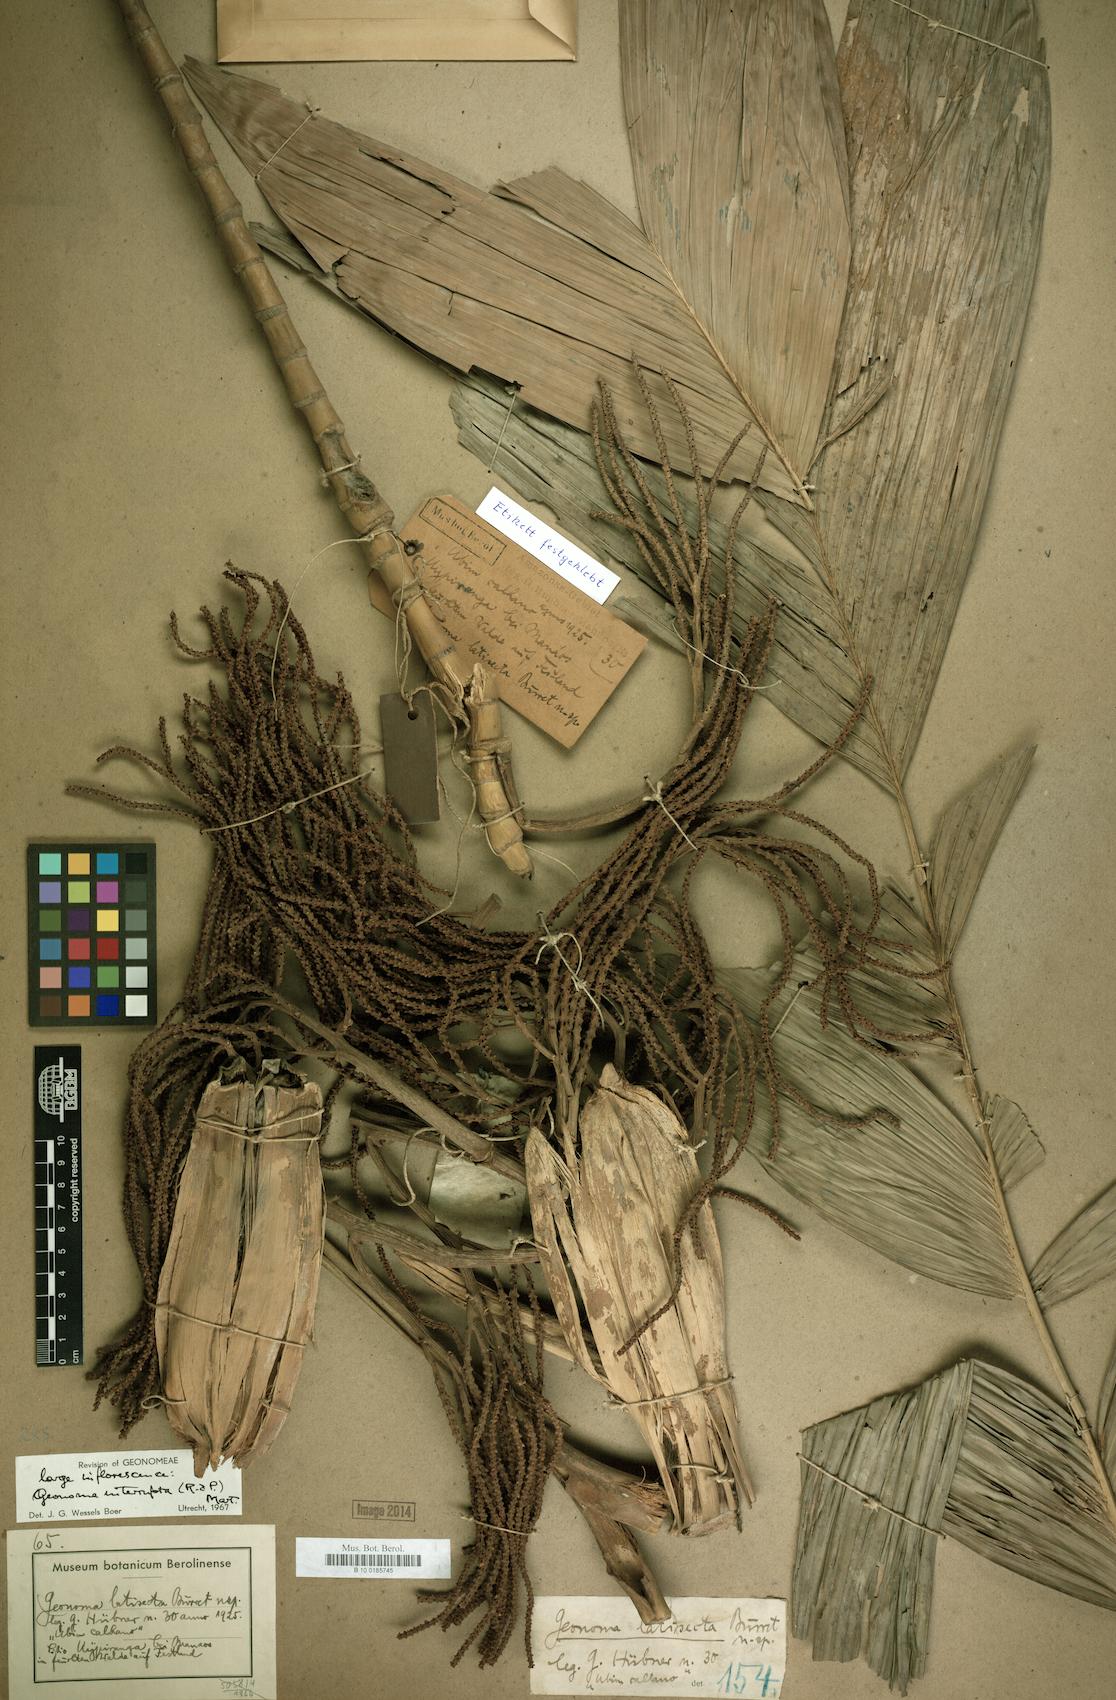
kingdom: Plantae
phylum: Tracheophyta
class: Liliopsida
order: Arecales
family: Arecaceae
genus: Geonoma
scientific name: Geonoma maxima
